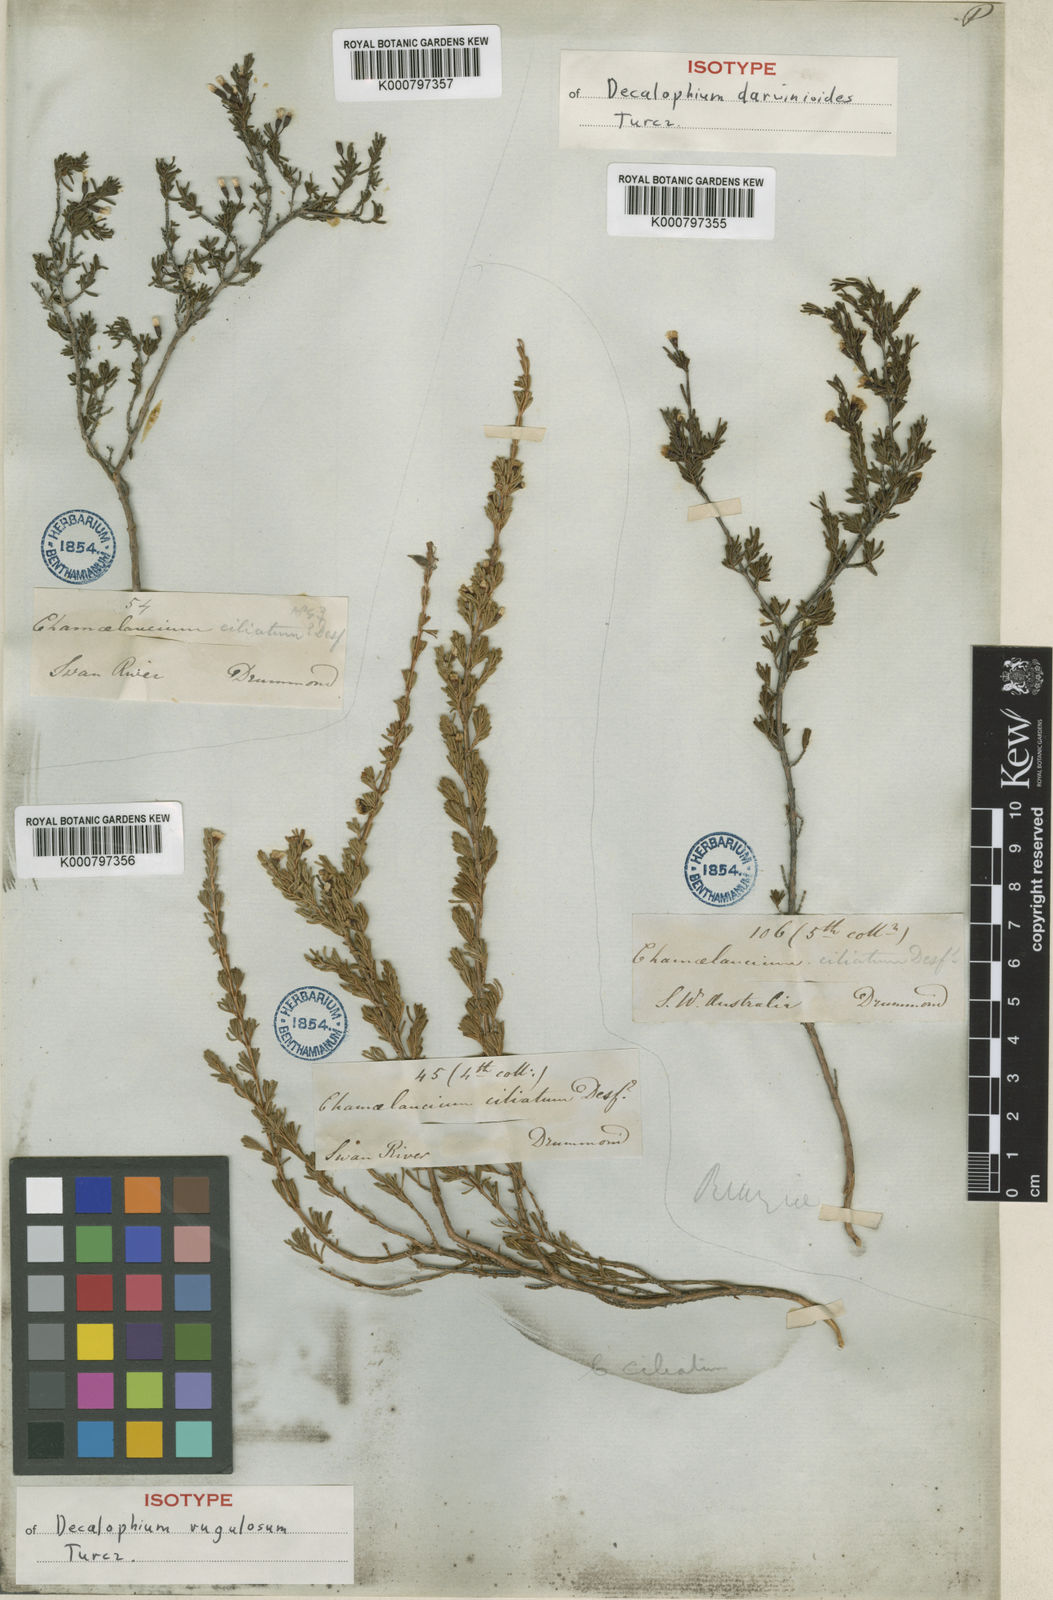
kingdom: Plantae
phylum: Tracheophyta
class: Magnoliopsida
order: Myrtales
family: Myrtaceae
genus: Chamelaucium
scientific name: Chamelaucium
